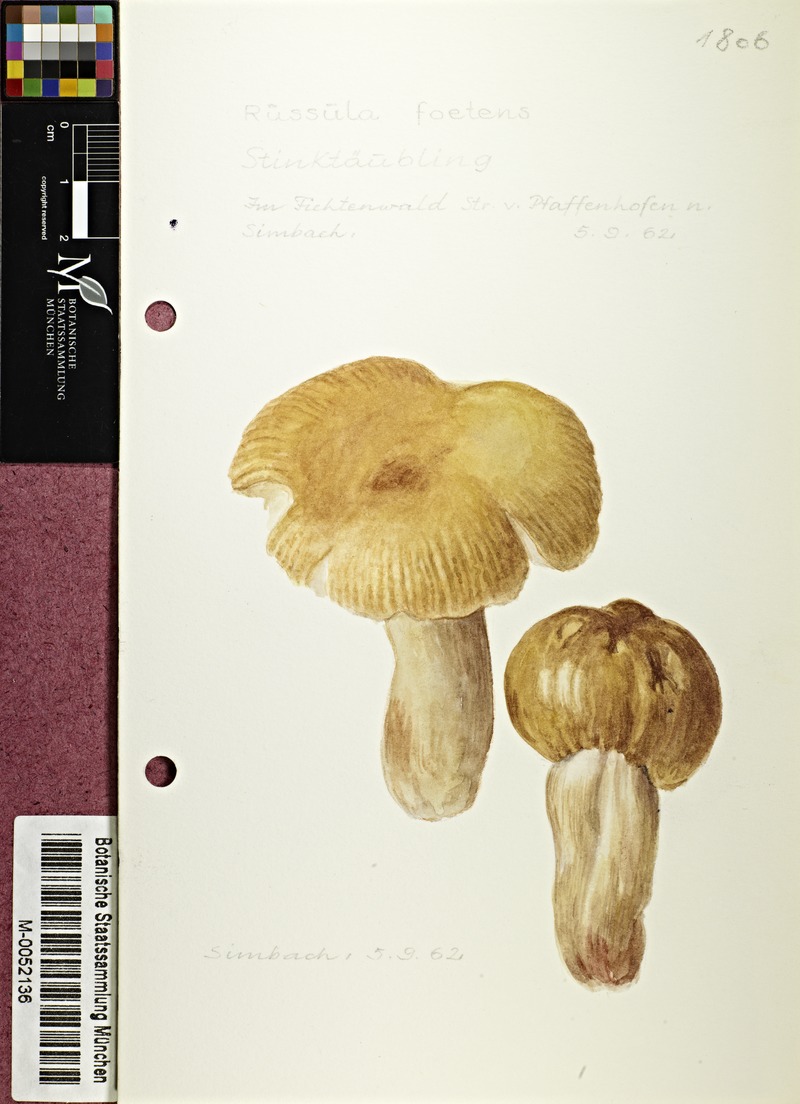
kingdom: Fungi
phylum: Basidiomycota
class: Agaricomycetes
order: Russulales
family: Russulaceae
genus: Russula
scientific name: Russula foetens
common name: Foetid russula
